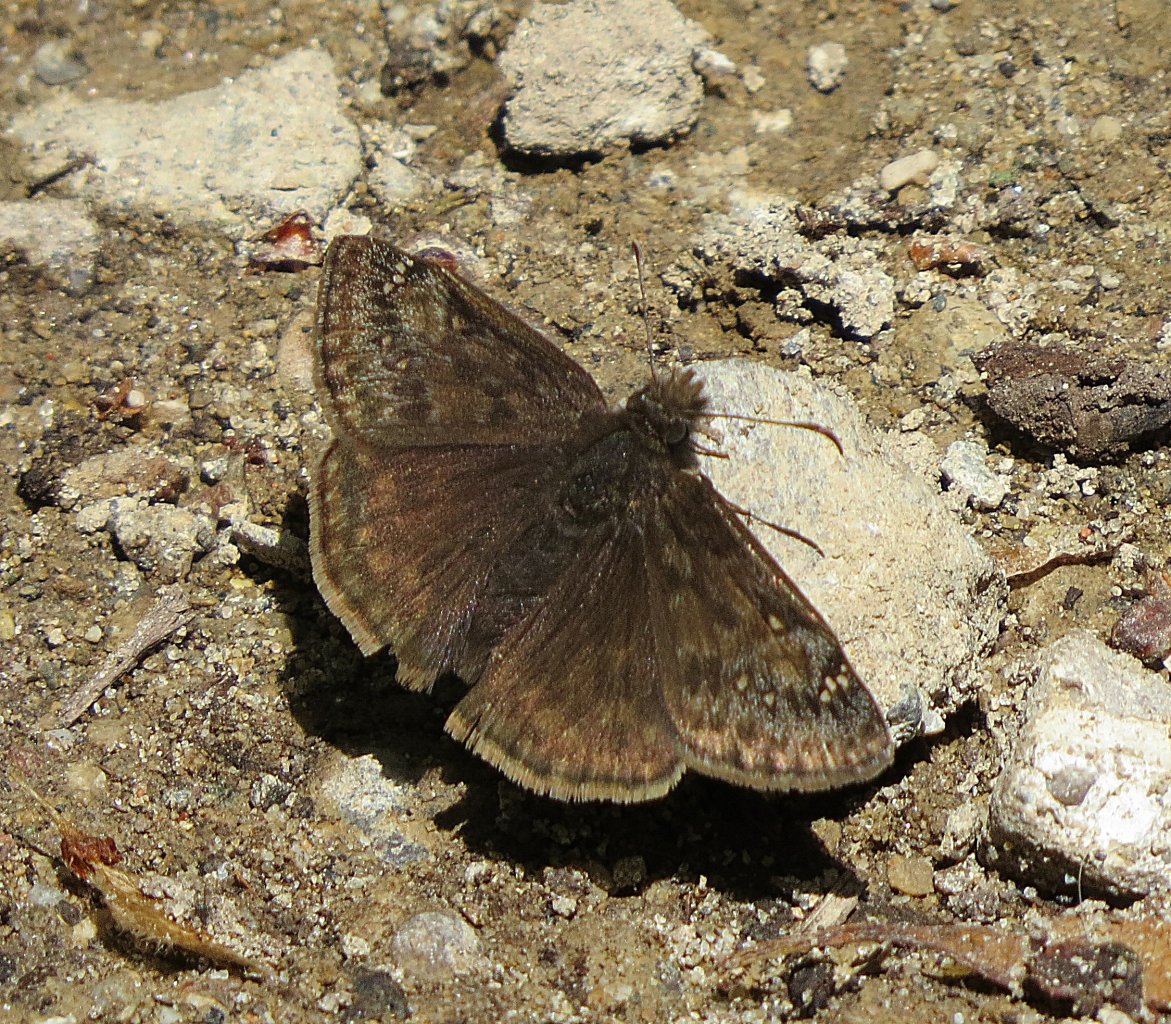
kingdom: Animalia
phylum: Arthropoda
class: Insecta
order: Lepidoptera
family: Hesperiidae
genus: Gesta
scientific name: Gesta
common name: Juvenal's Duskywing
